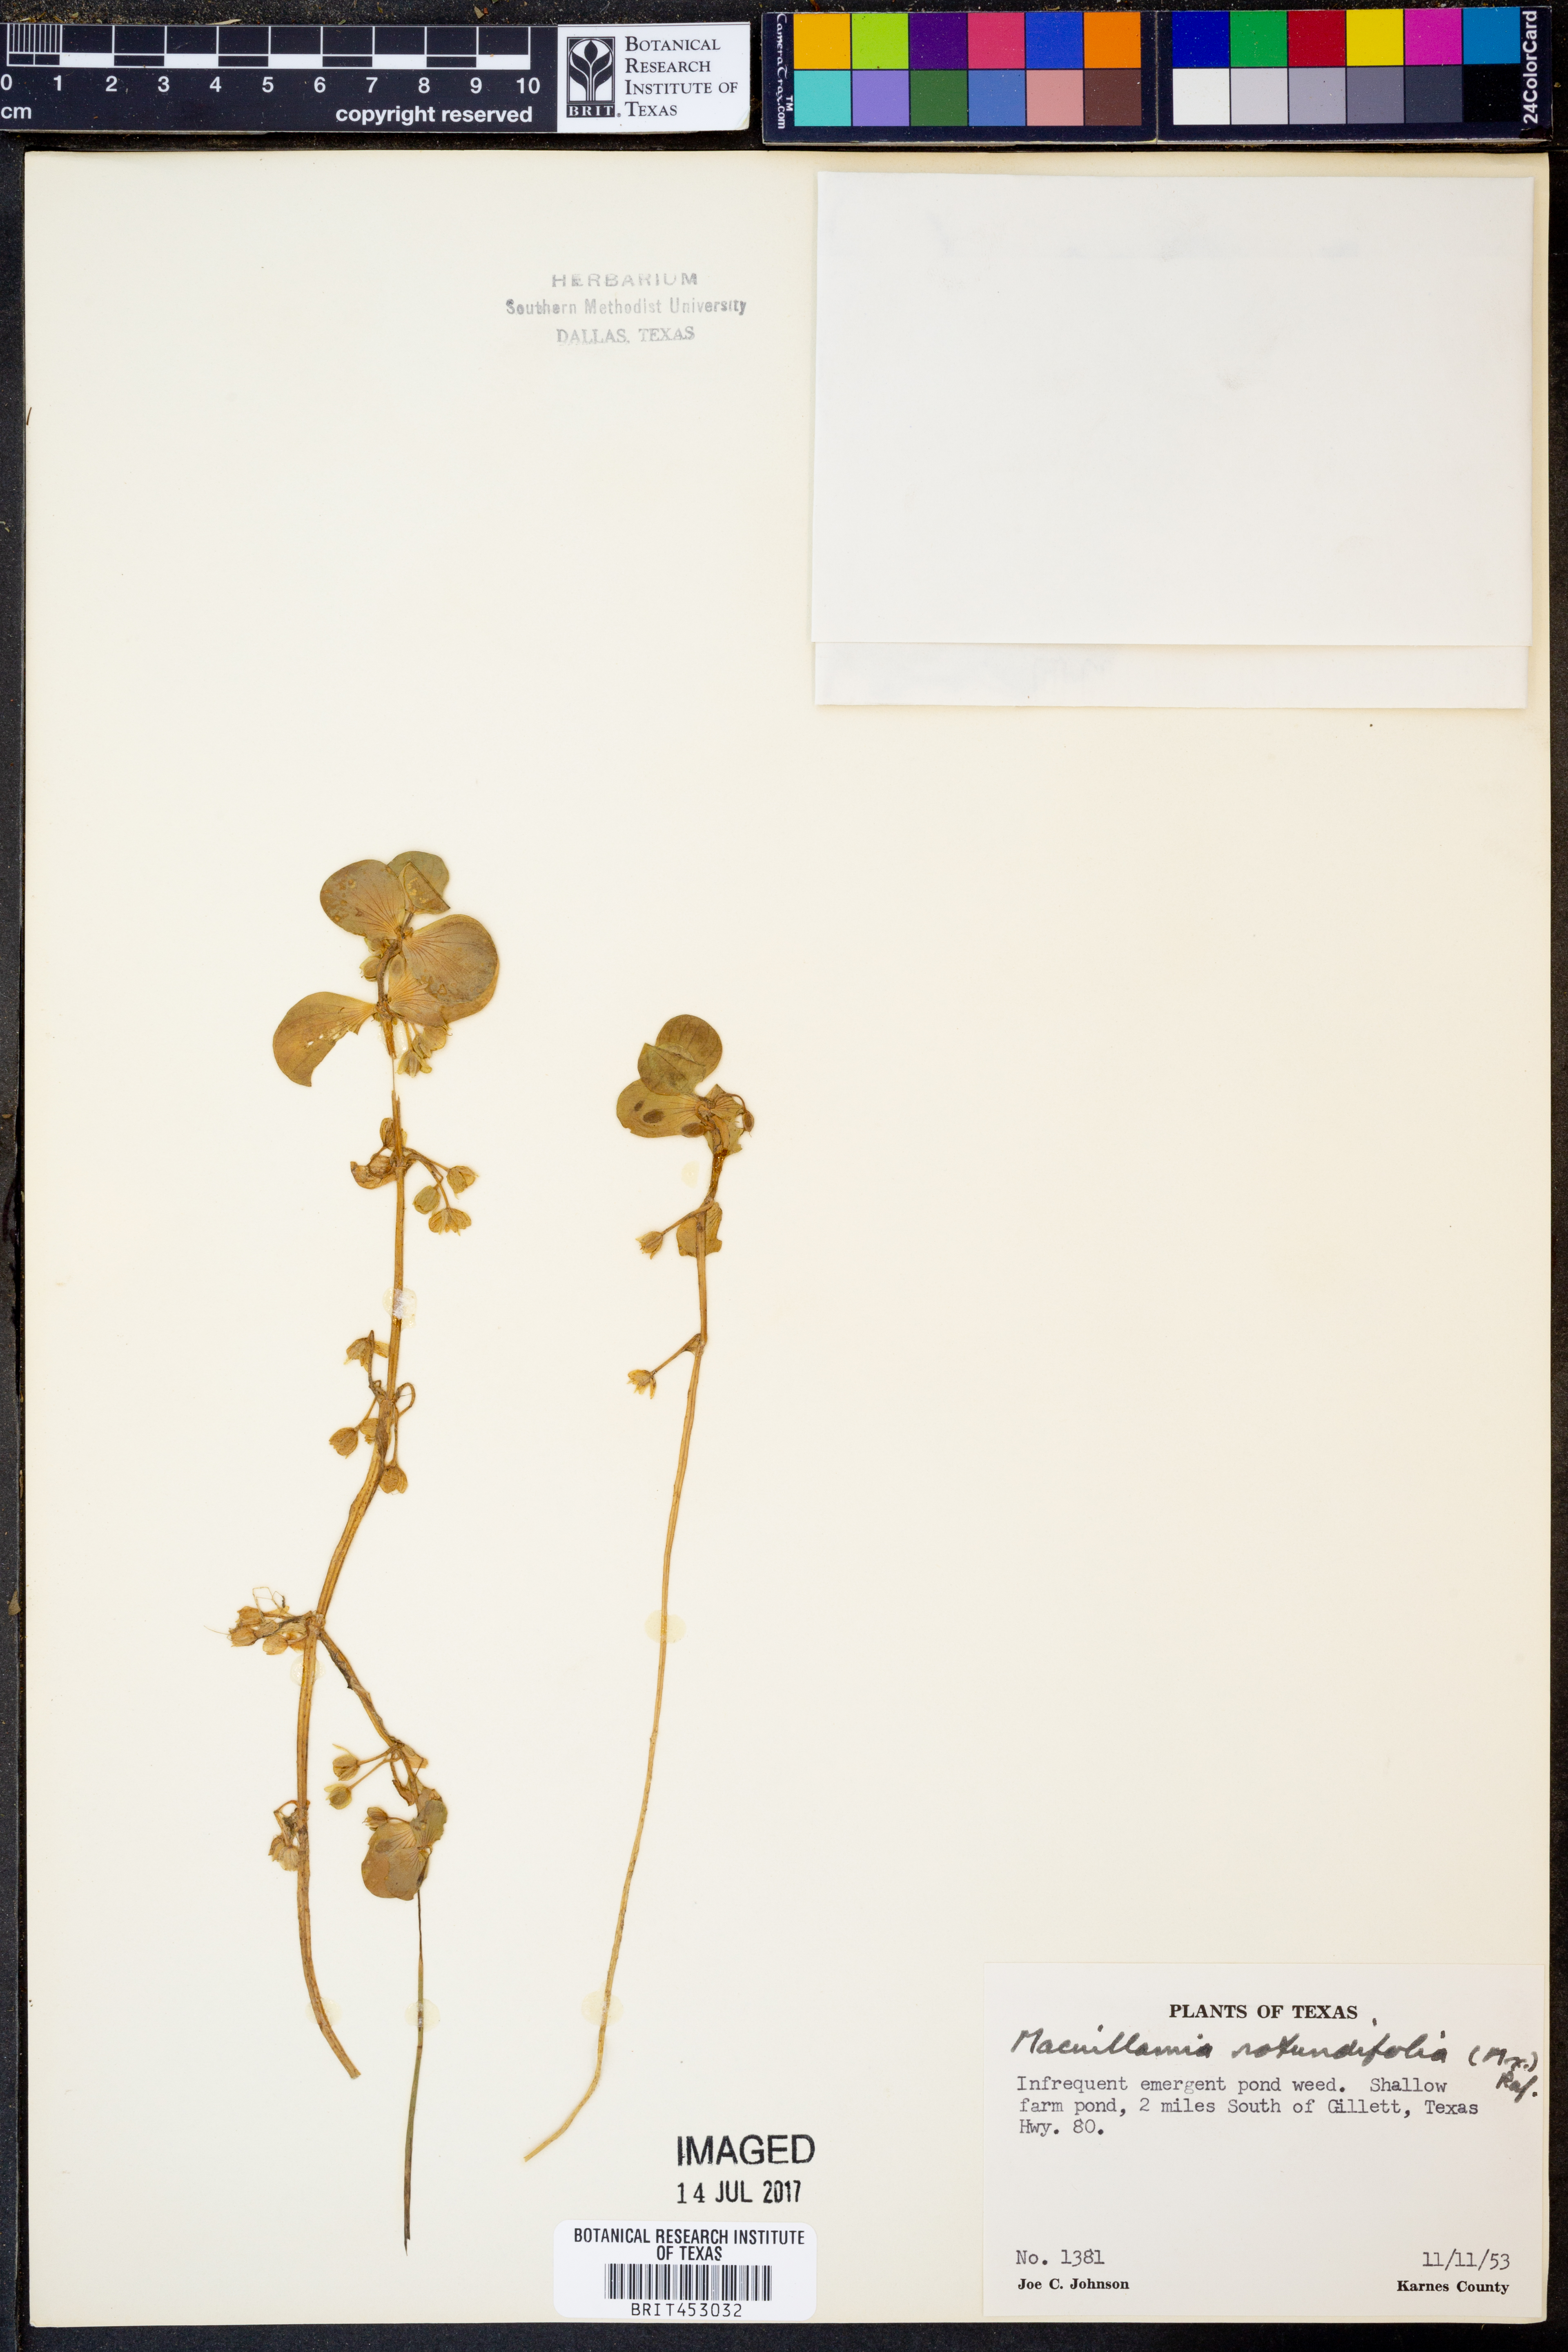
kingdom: Plantae
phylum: Tracheophyta
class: Magnoliopsida
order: Lamiales
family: Plantaginaceae
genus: Bacopa
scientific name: Bacopa rotundifolia
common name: Disc water hyssop
